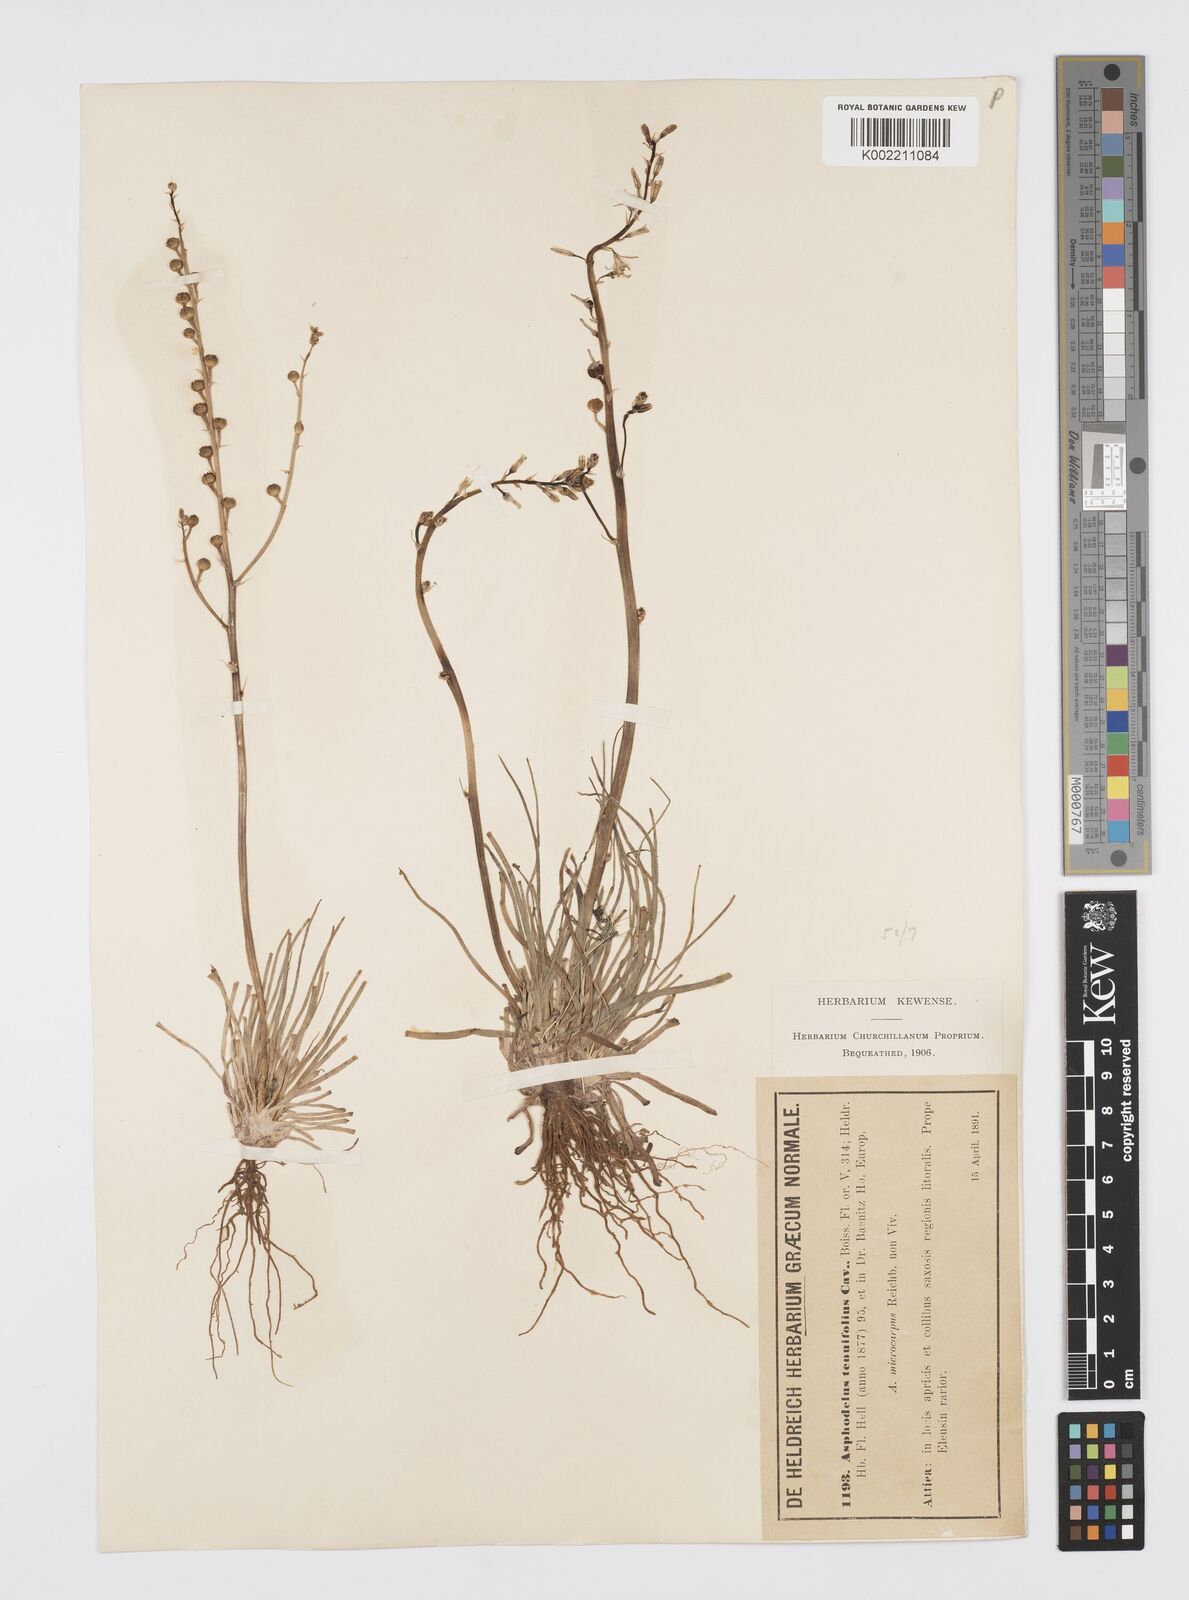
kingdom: Plantae
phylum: Tracheophyta
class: Liliopsida
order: Asparagales
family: Asphodelaceae
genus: Asphodelus
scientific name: Asphodelus tenuifolius
